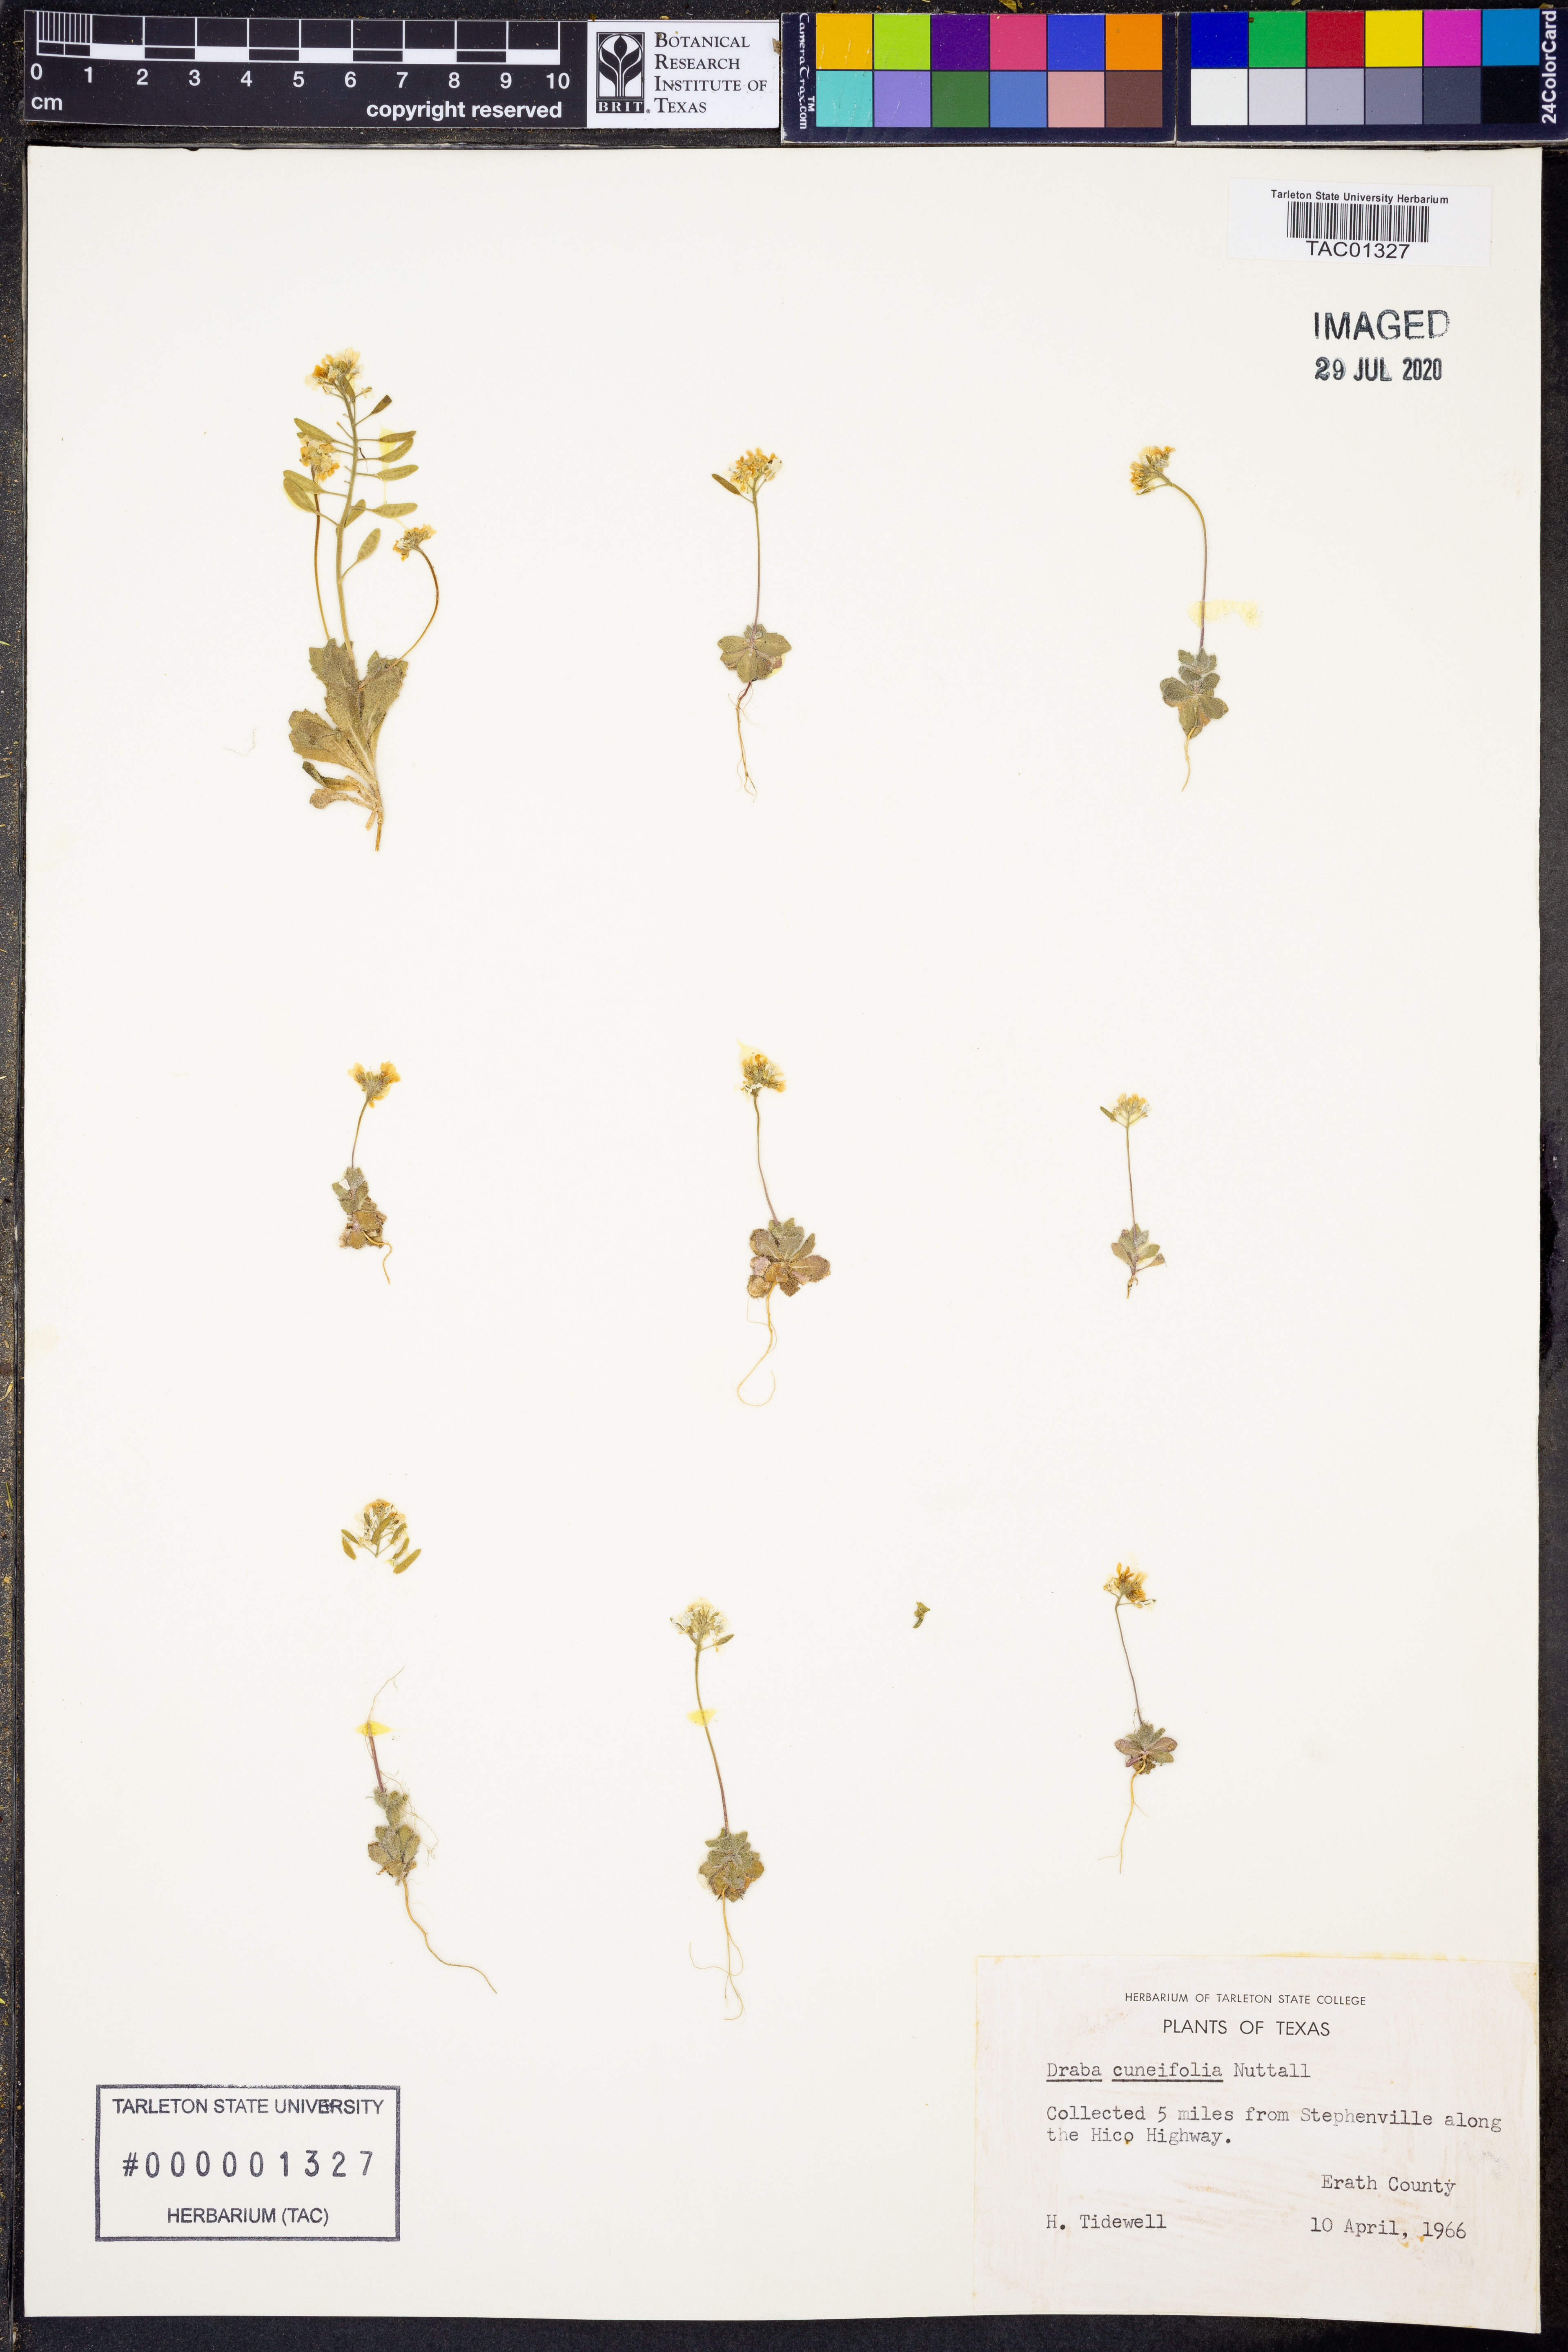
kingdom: Plantae
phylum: Tracheophyta
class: Magnoliopsida
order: Brassicales
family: Brassicaceae
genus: Tomostima
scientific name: Tomostima cuneifolia
